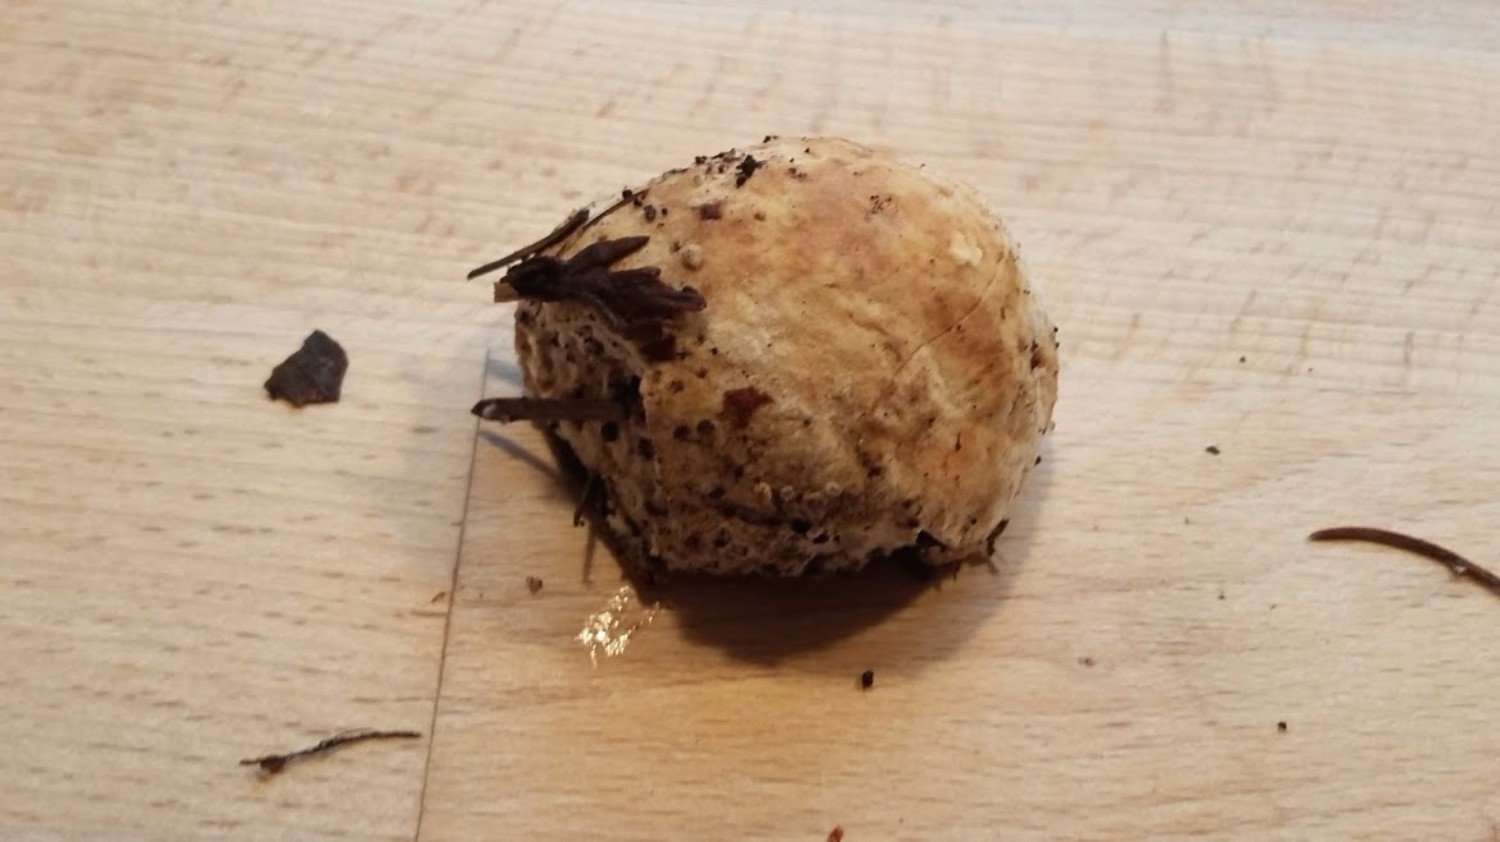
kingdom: Fungi
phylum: Basidiomycota
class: Agaricomycetes
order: Polyporales
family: Dacryobolaceae
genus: Postia
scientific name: Postia ptychogaster
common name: støvende kødporesvamp
